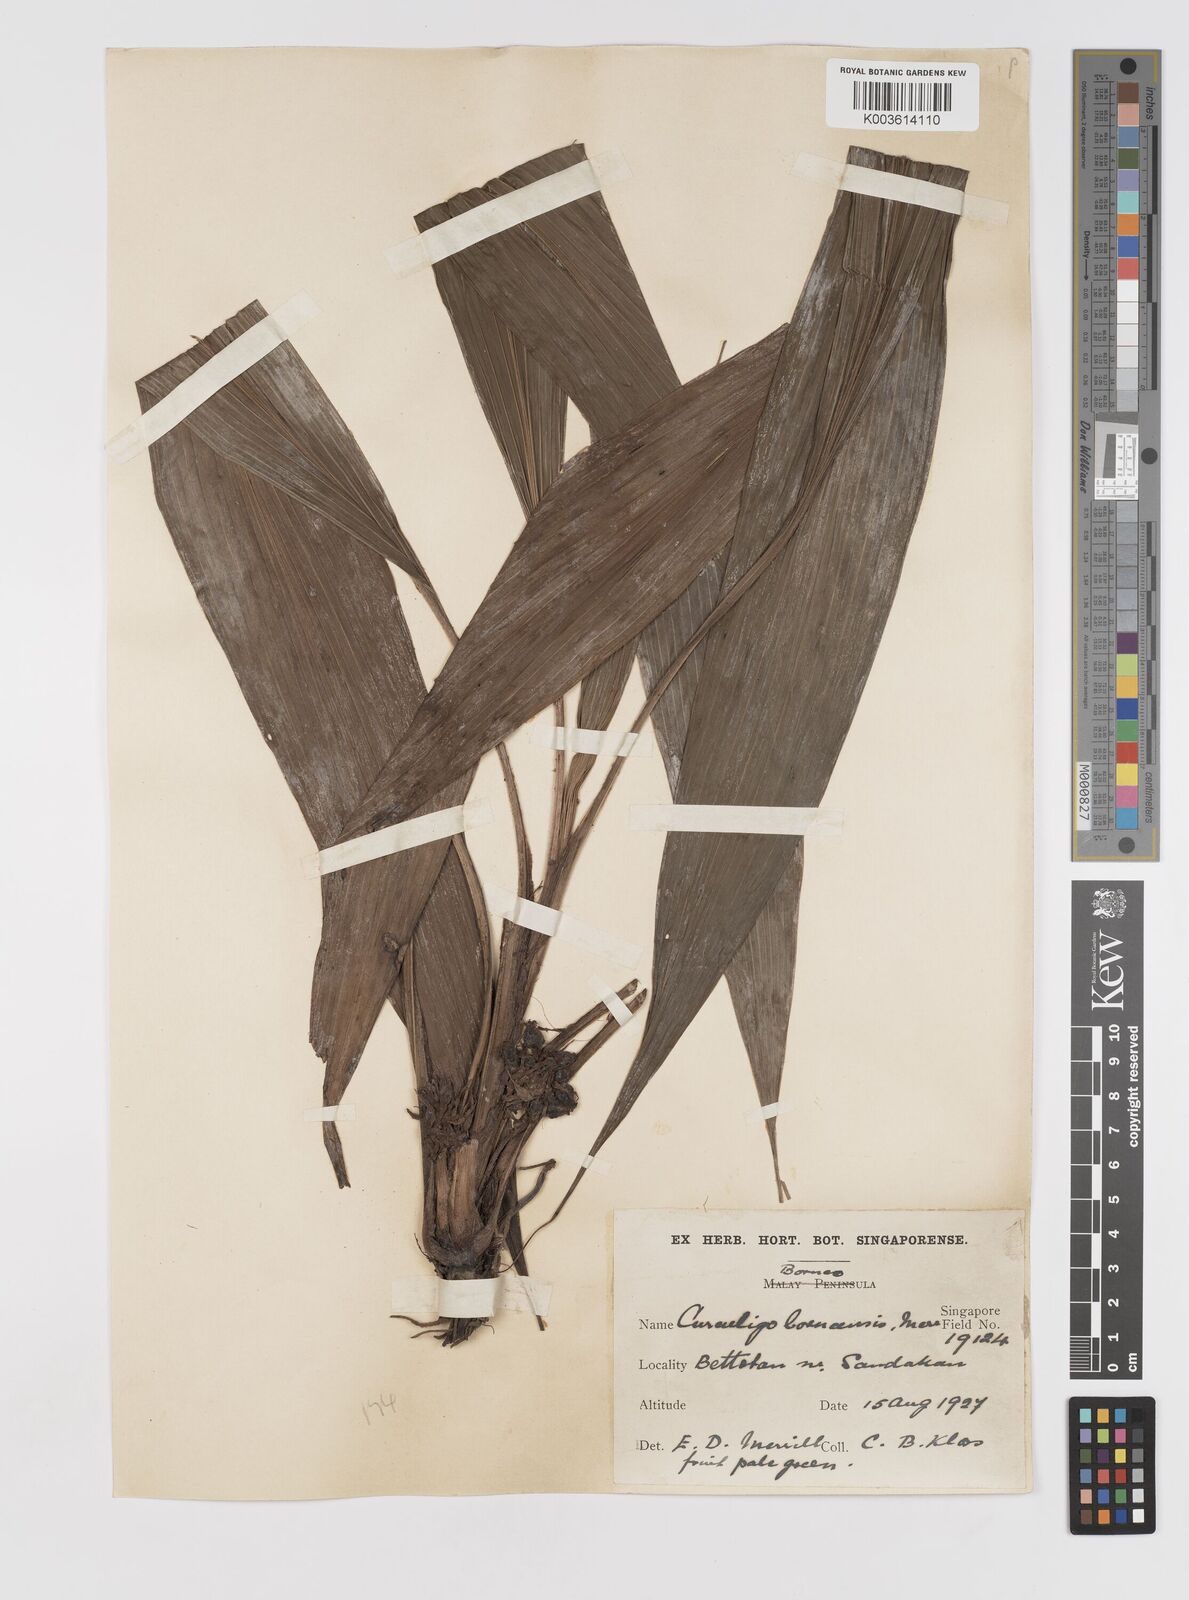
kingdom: Plantae
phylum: Tracheophyta
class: Liliopsida
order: Asparagales
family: Hypoxidaceae
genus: Curculigo
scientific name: Curculigo latifolia
